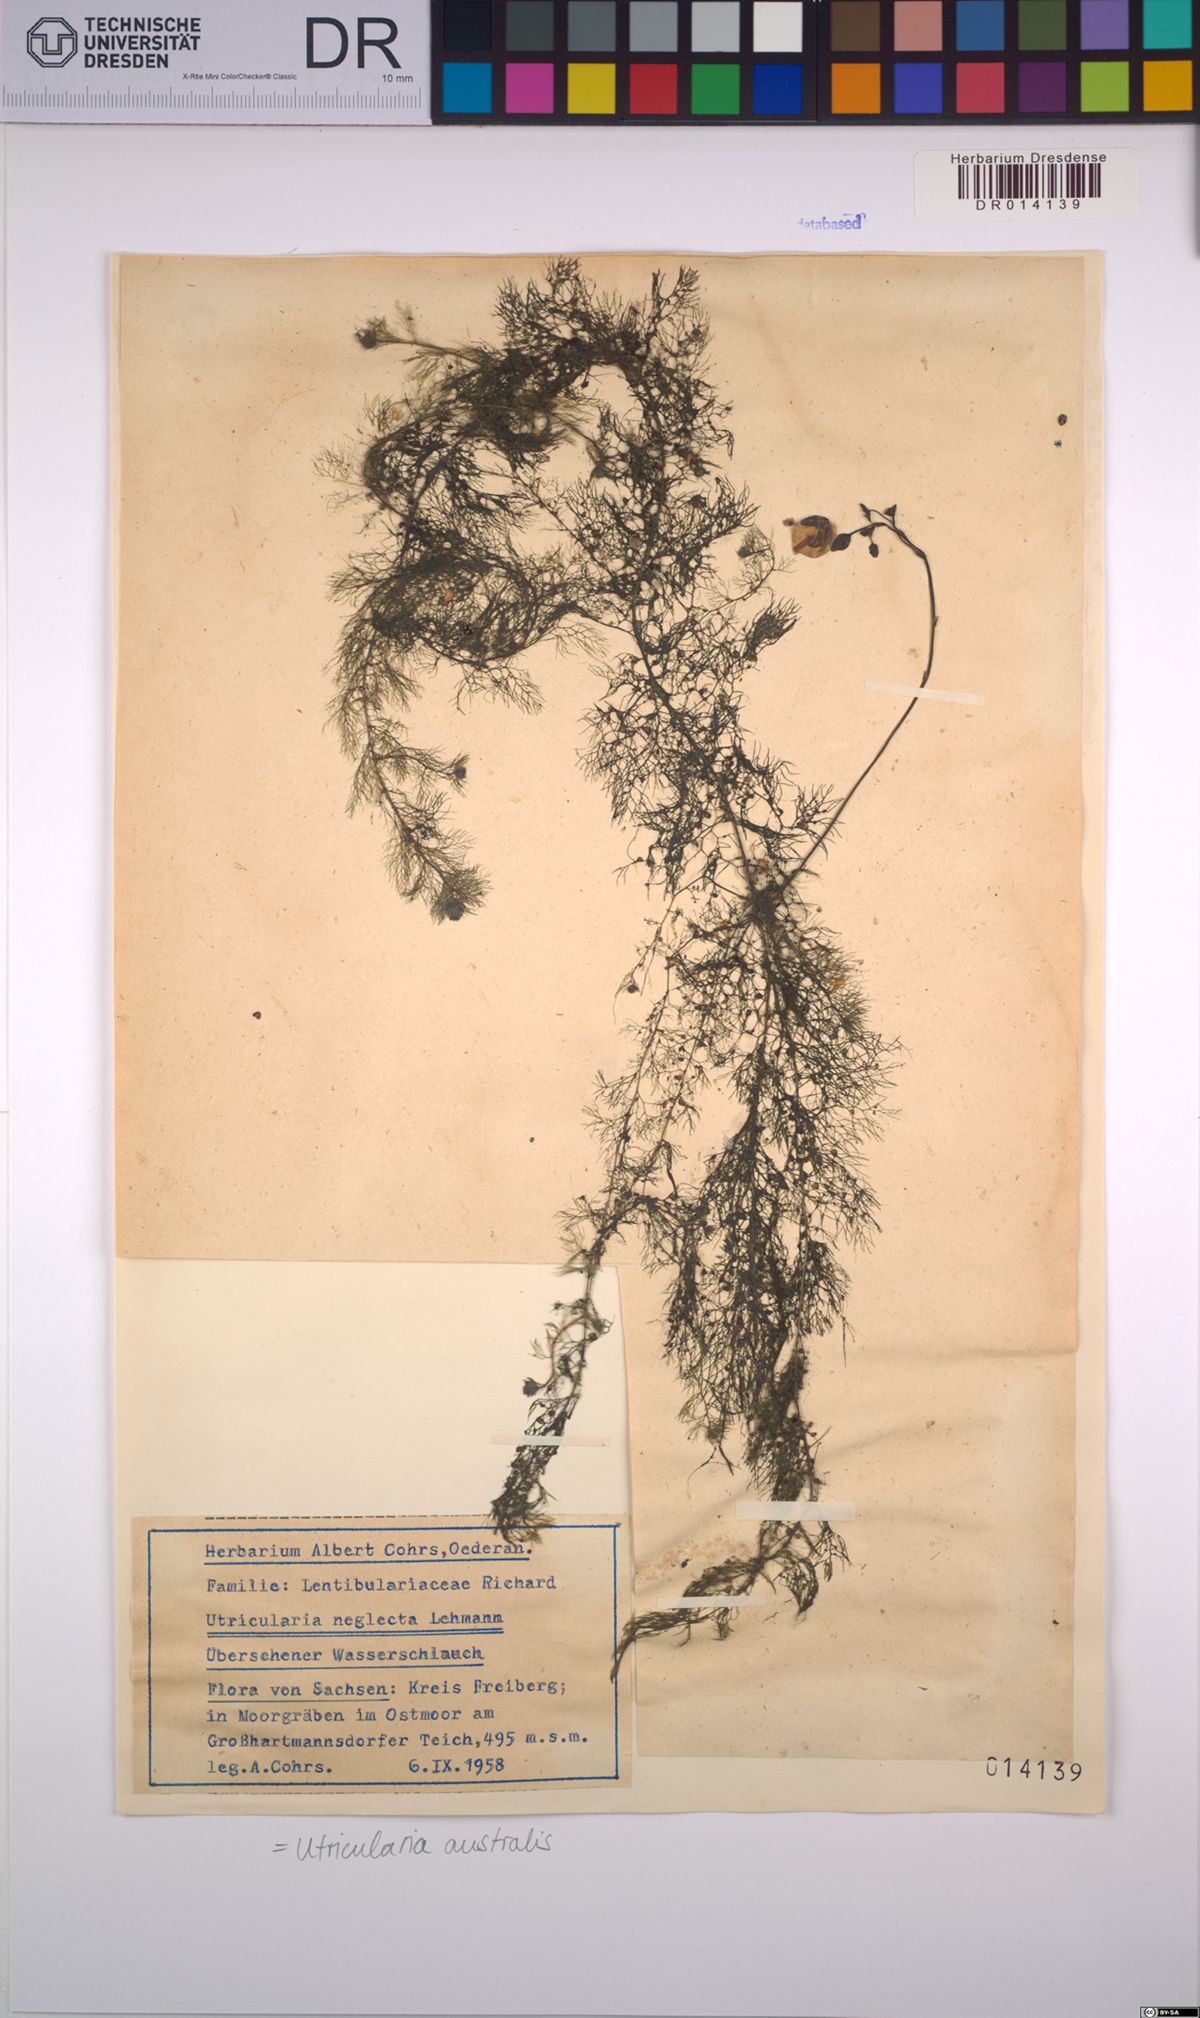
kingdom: Plantae
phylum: Tracheophyta
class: Magnoliopsida
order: Lamiales
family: Lentibulariaceae
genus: Utricularia
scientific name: Utricularia australis
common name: Bladderwort
